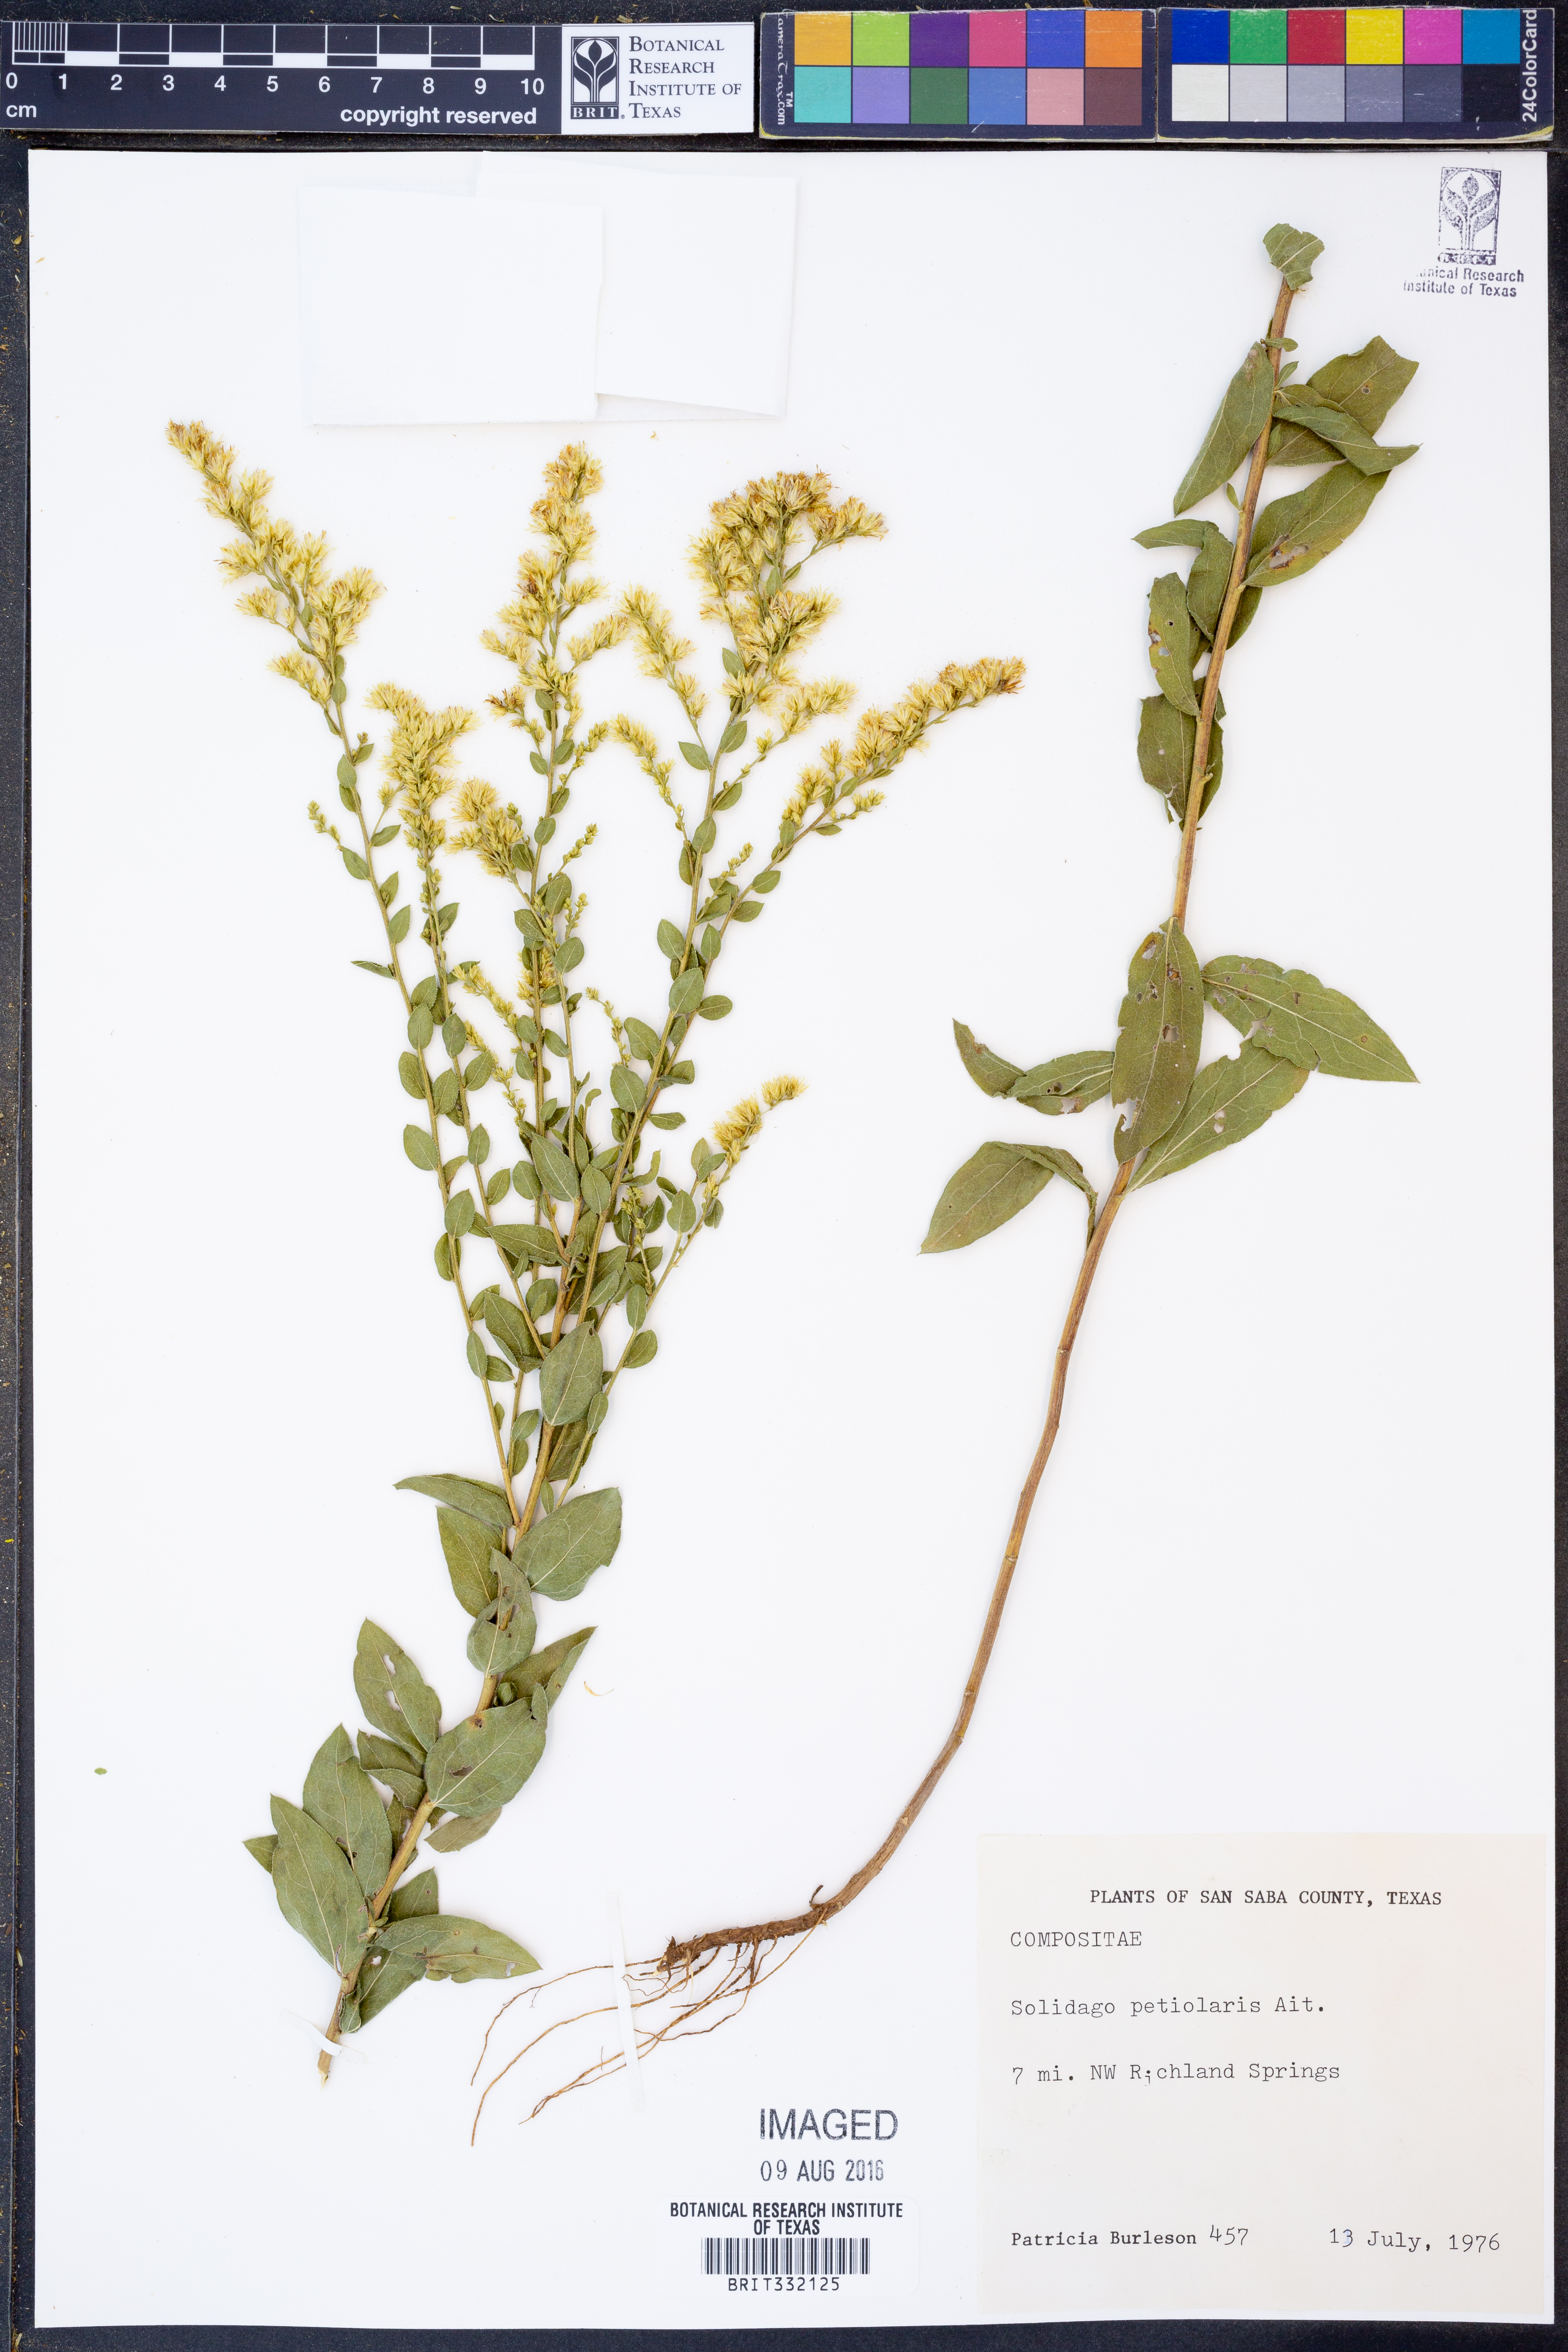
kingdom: Plantae
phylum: Tracheophyta
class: Magnoliopsida
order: Asterales
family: Asteraceae
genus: Solidago
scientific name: Solidago petiolaris
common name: Downy ragged goldenrod
